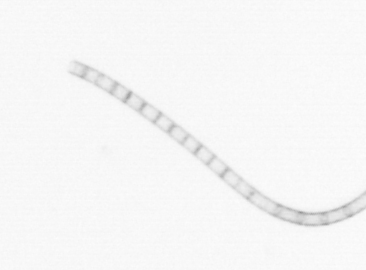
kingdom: Chromista
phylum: Ochrophyta
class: Bacillariophyceae
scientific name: Bacillariophyceae
